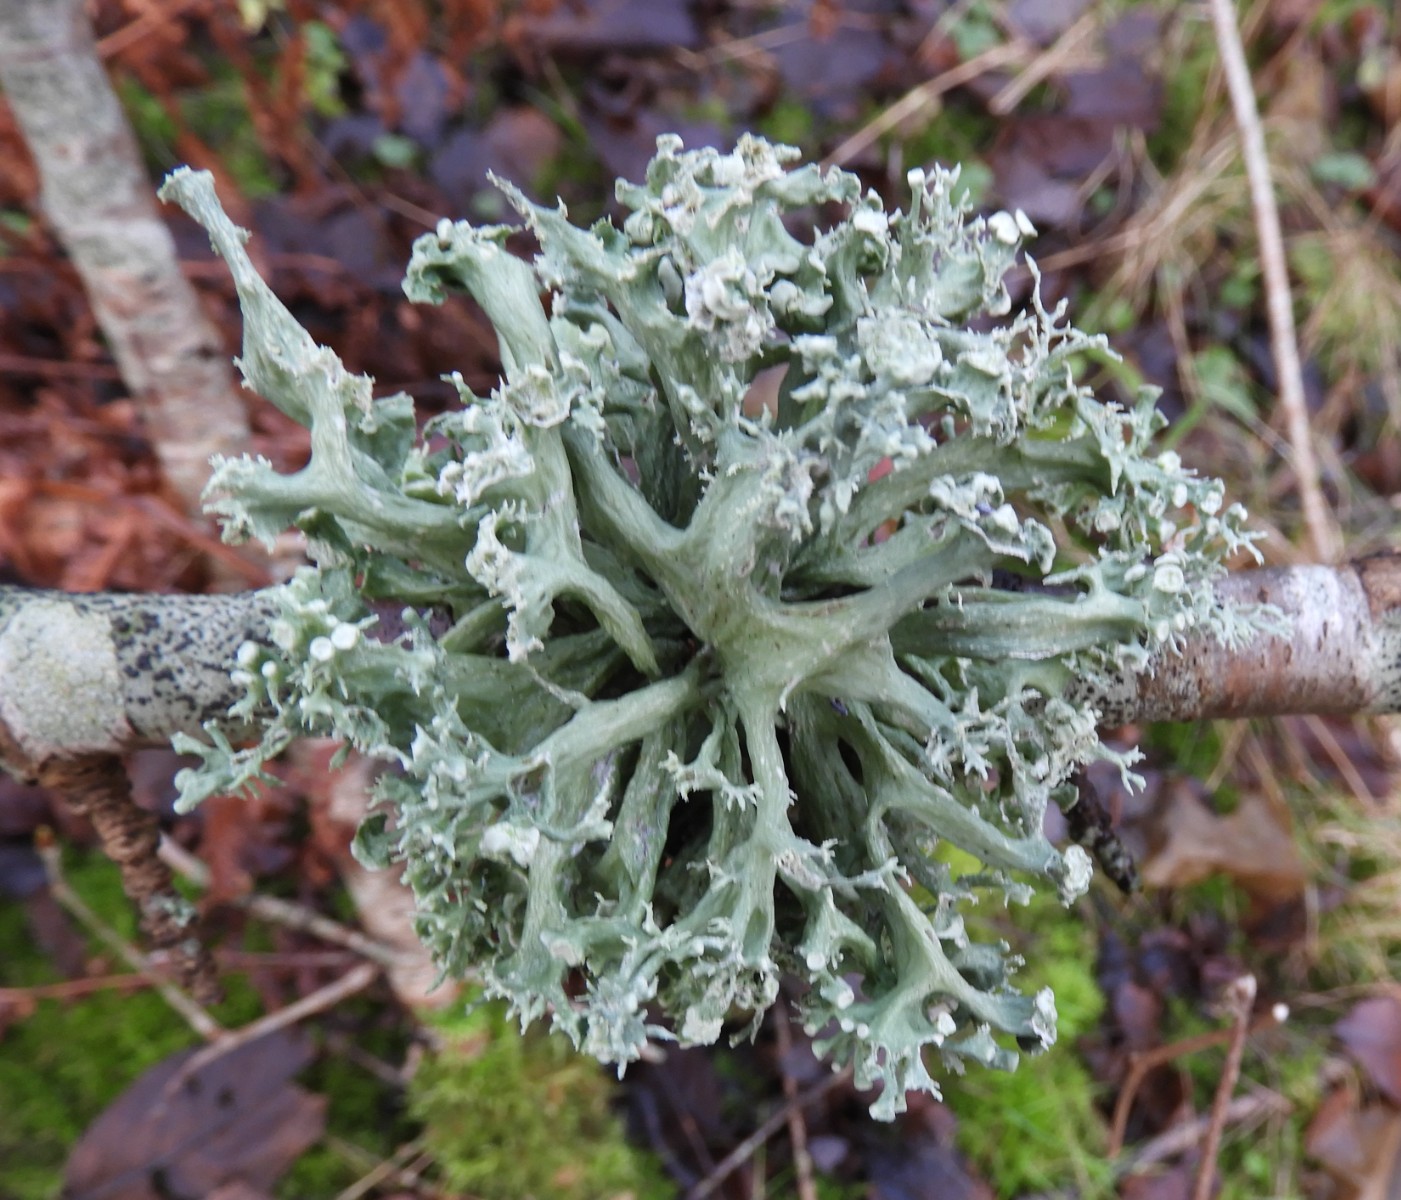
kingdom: Fungi
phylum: Ascomycota
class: Lecanoromycetes
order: Lecanorales
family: Ramalinaceae
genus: Ramalina
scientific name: Ramalina fastigiata
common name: tue-grenlav
